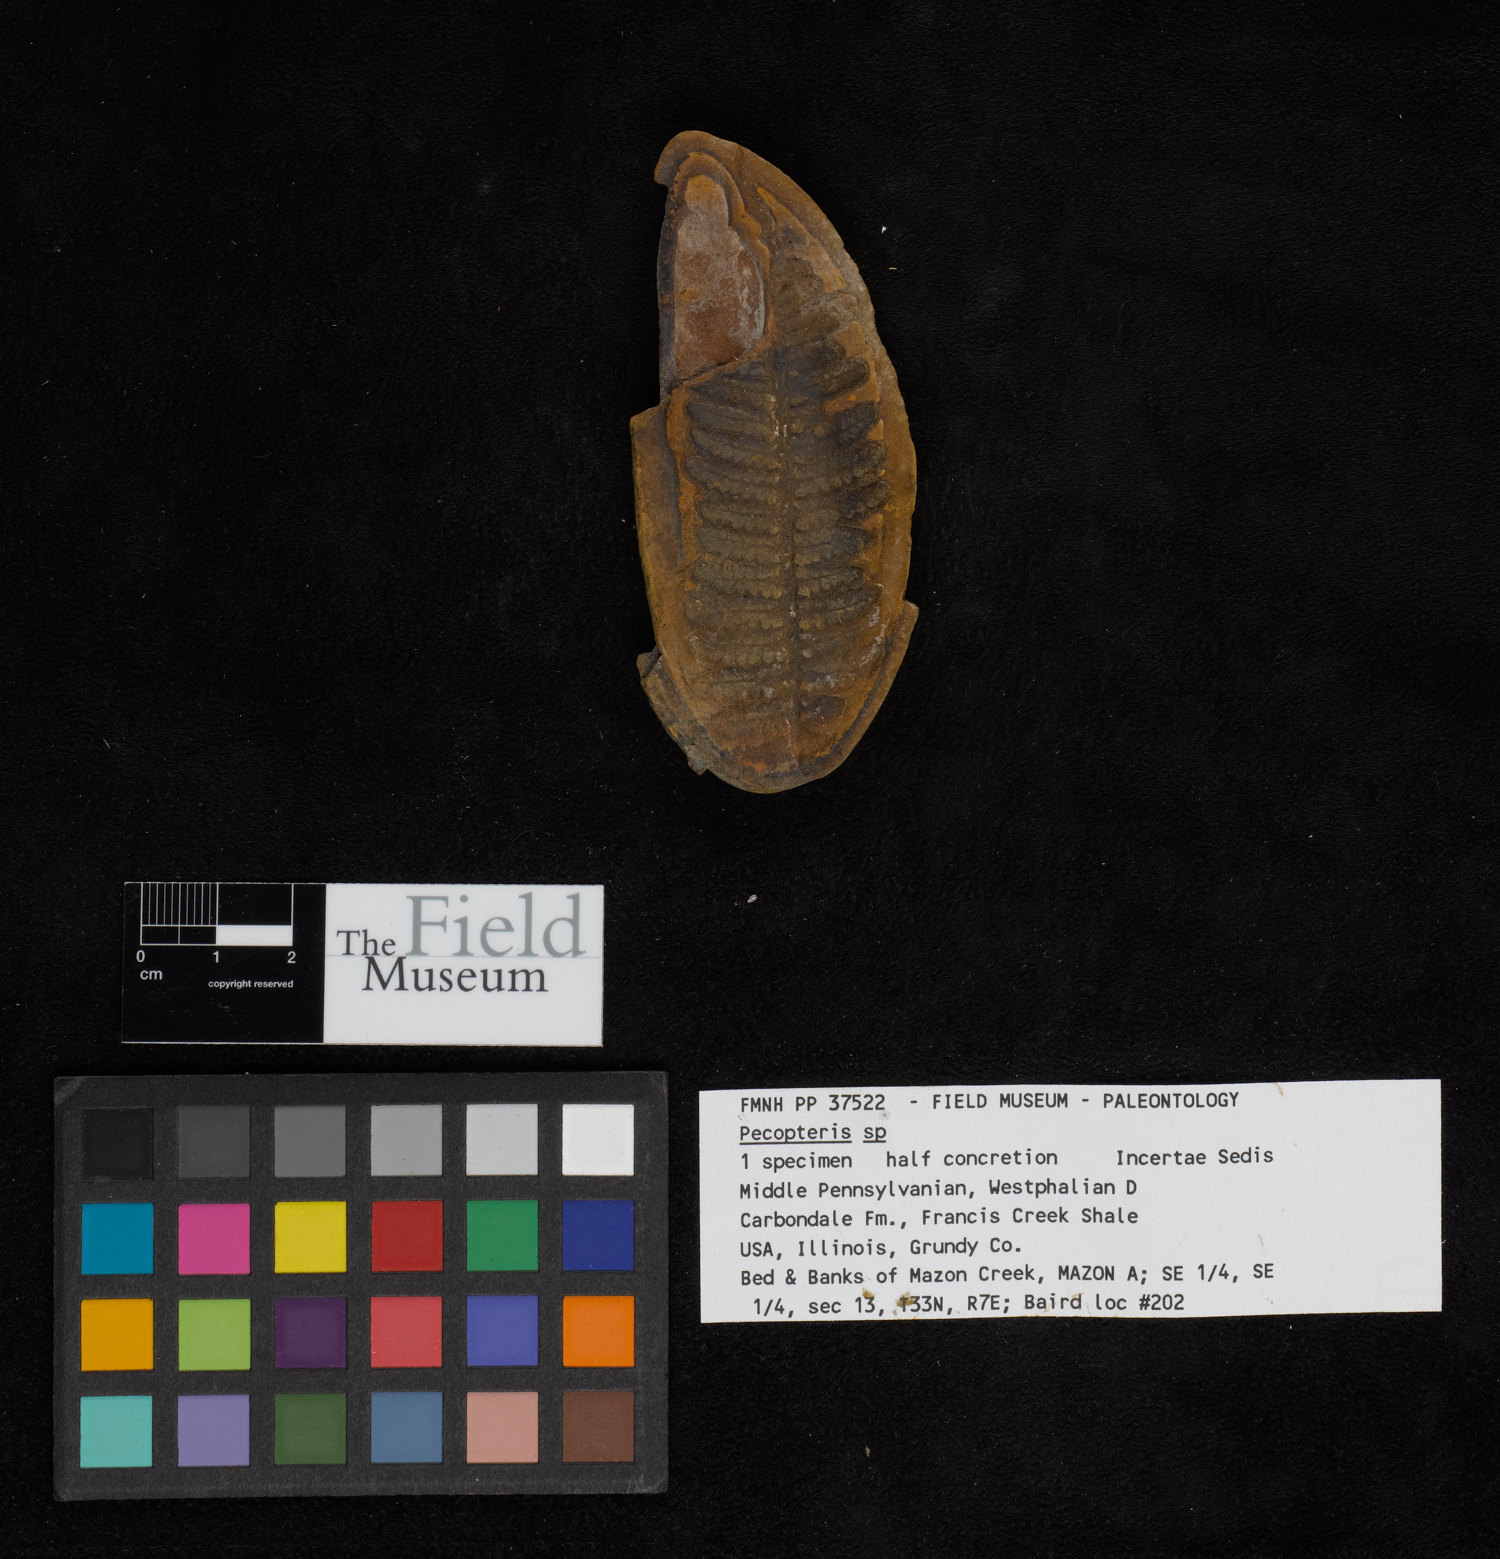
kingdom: Plantae
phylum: Tracheophyta
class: Polypodiopsida
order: Marattiales
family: Asterothecaceae
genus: Pecopteris
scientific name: Pecopteris
